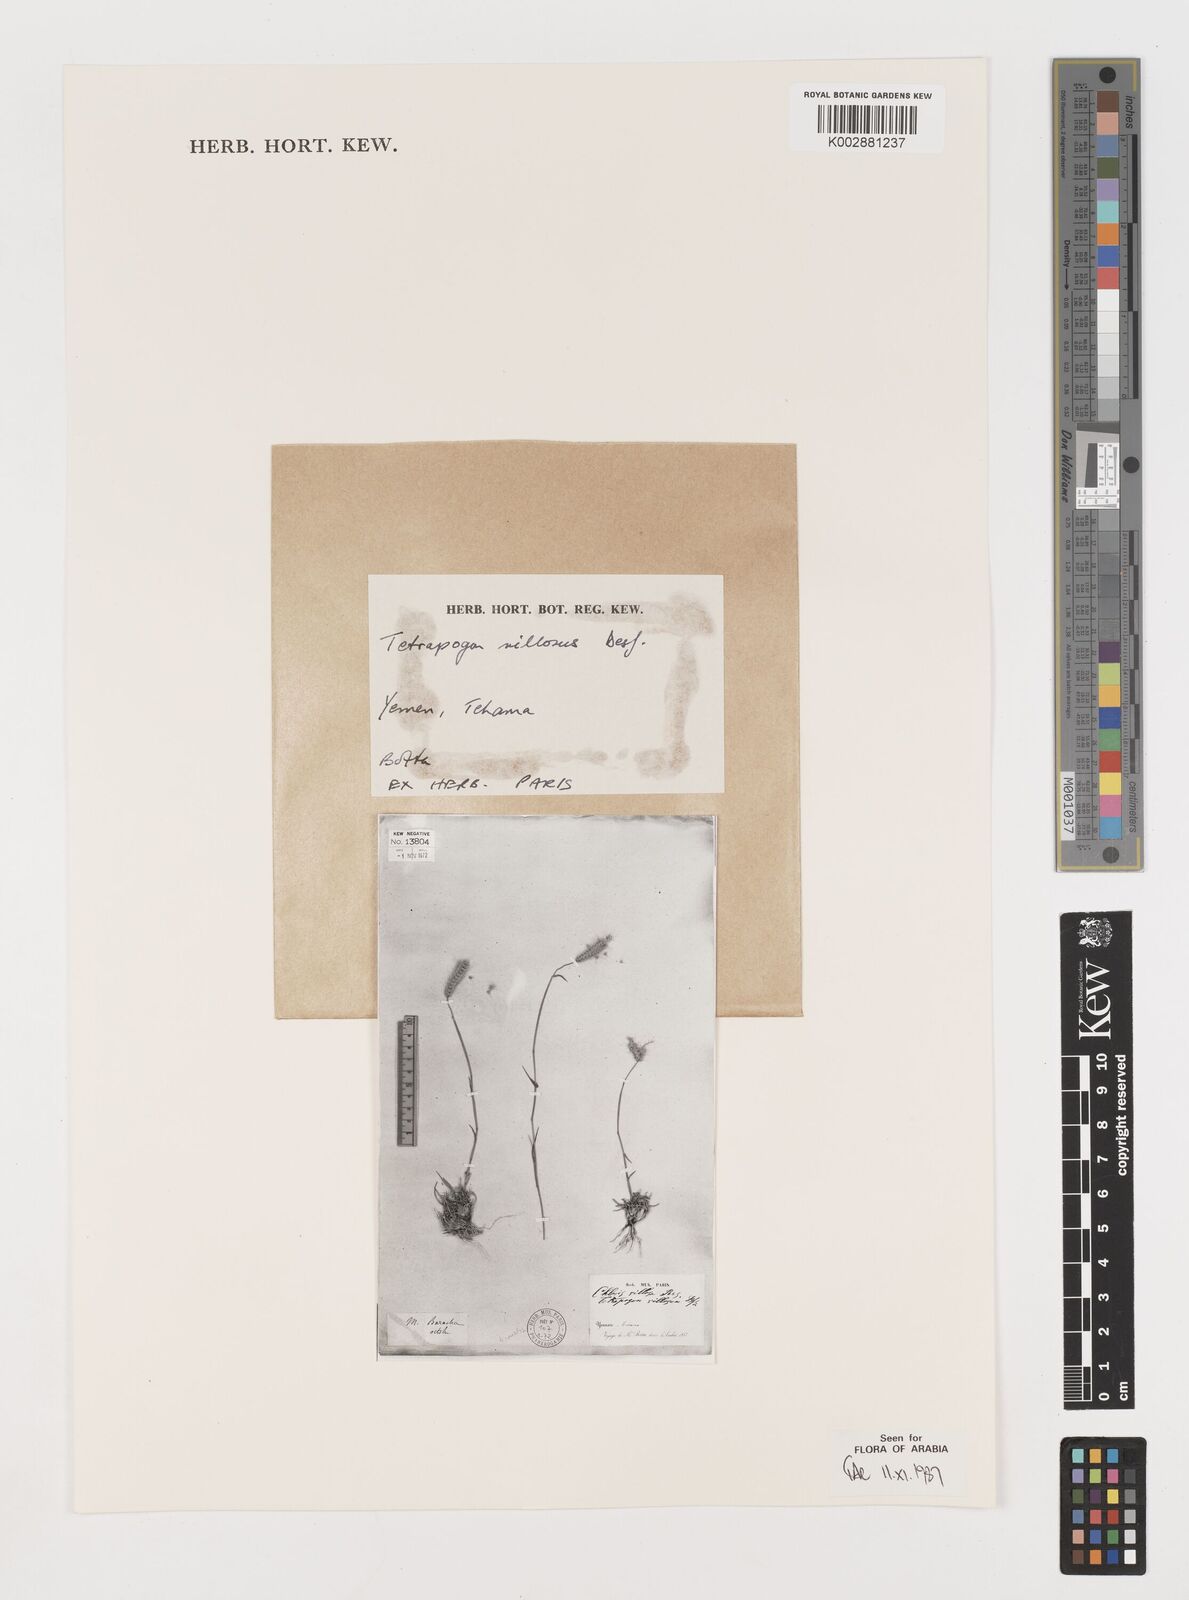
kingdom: Plantae
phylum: Tracheophyta
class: Liliopsida
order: Poales
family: Poaceae
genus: Tetrapogon
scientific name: Tetrapogon villosus
